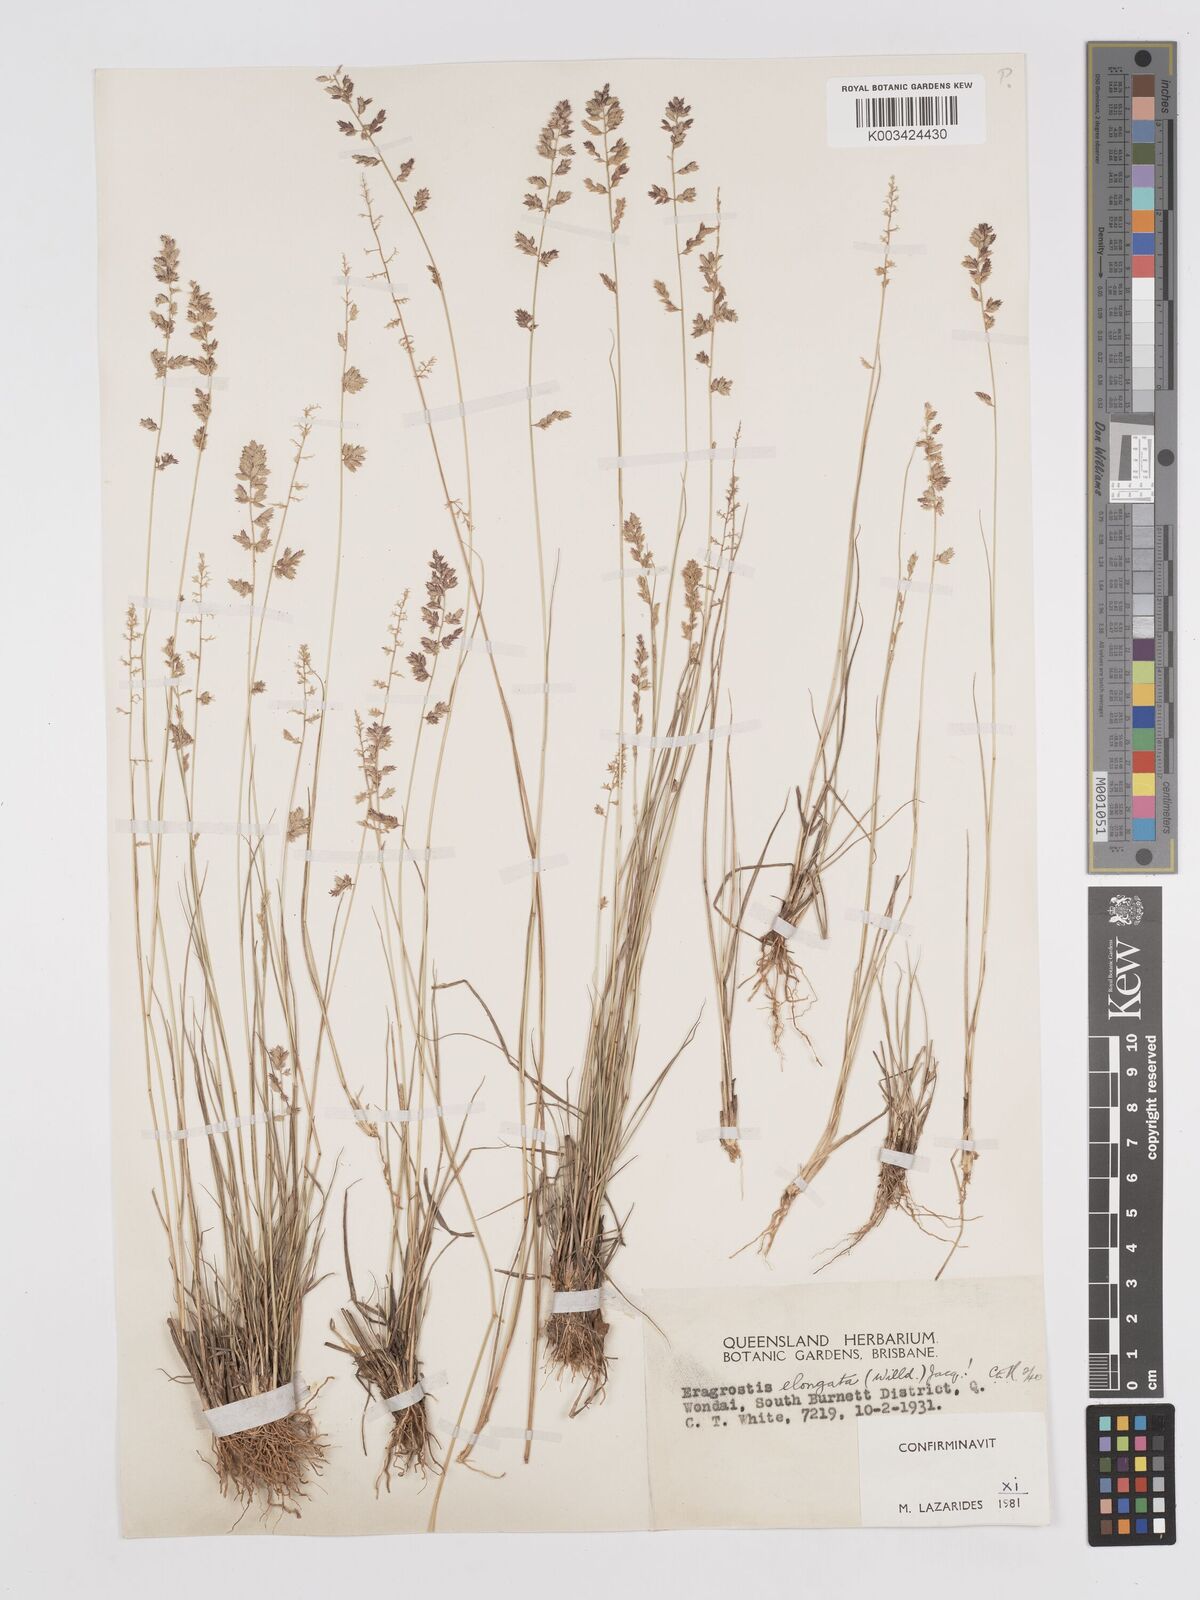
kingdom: Plantae
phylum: Tracheophyta
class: Liliopsida
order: Poales
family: Poaceae
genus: Eragrostis
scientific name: Eragrostis elongata
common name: Long lovegrass
